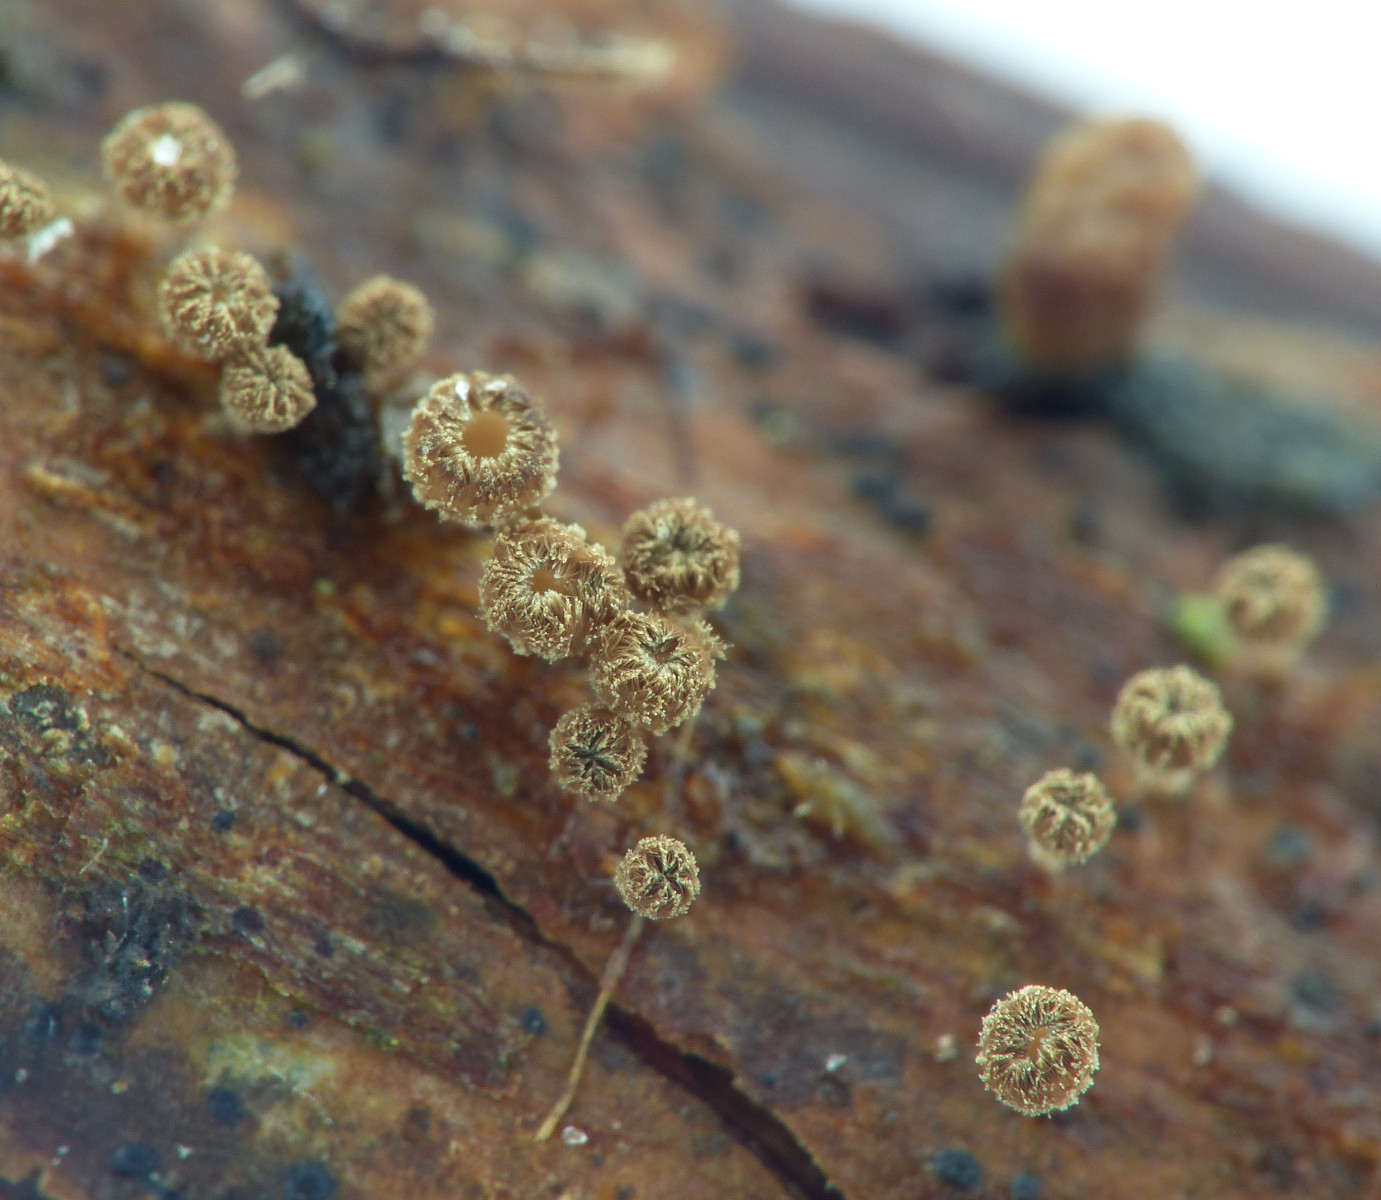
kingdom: Fungi
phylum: Ascomycota
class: Leotiomycetes
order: Helotiales
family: Lachnaceae
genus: Brunnipila
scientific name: Brunnipila clandestina
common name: hindbær-frynseskive
